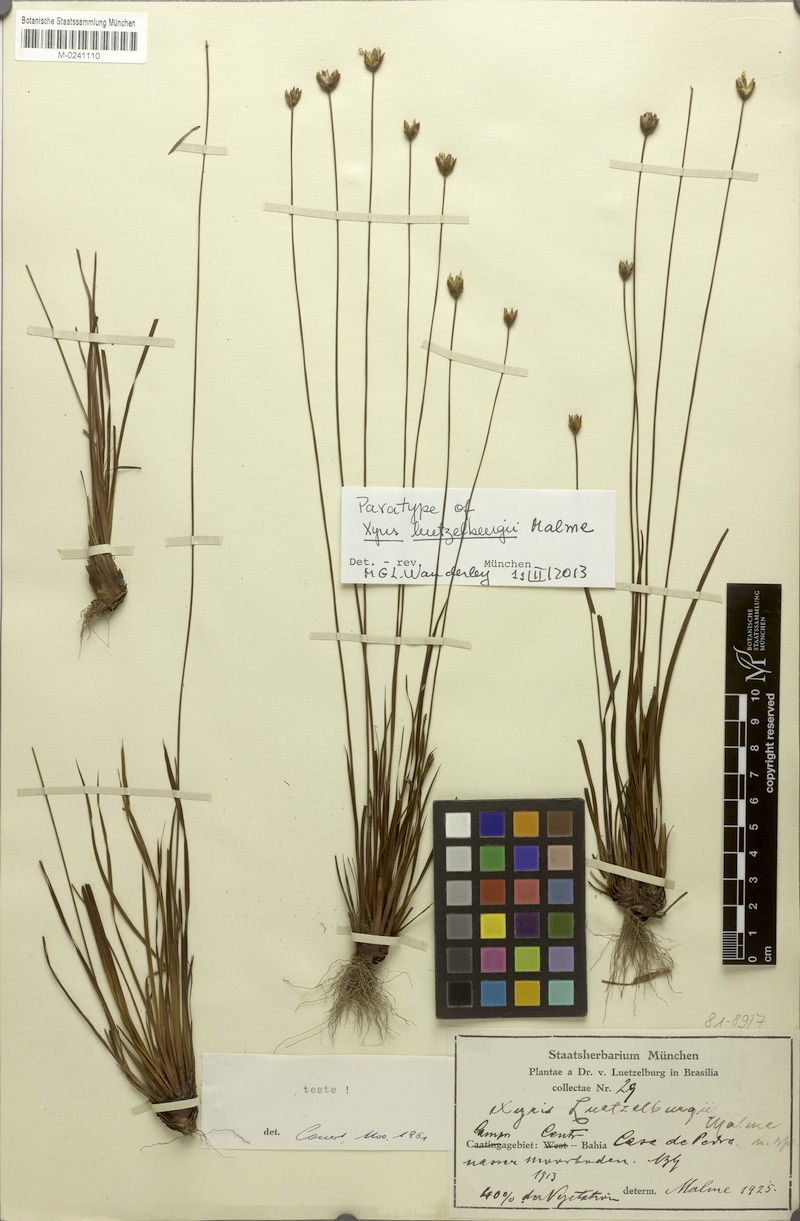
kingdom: Plantae
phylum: Tracheophyta
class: Liliopsida
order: Poales
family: Xyridaceae
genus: Xyris
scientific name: Xyris luetzelburgii
